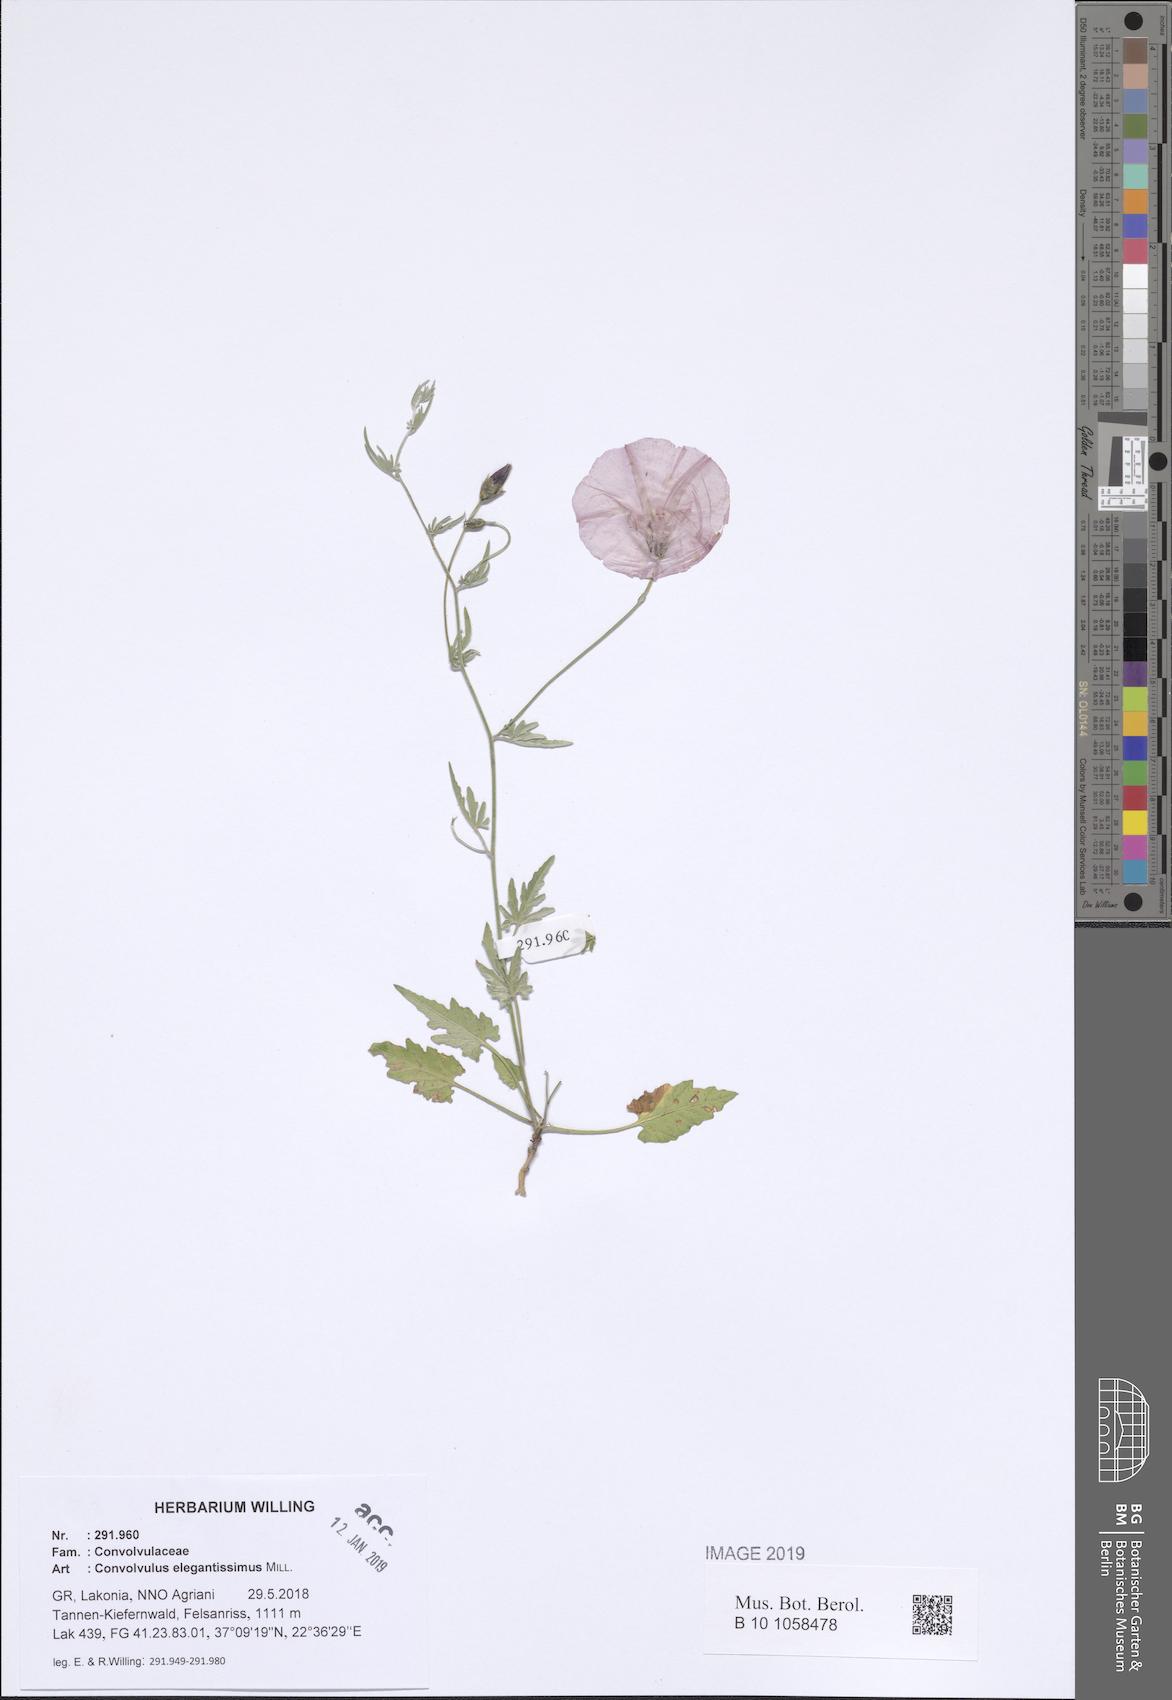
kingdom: Plantae
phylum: Tracheophyta
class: Magnoliopsida
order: Solanales
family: Convolvulaceae
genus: Convolvulus
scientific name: Convolvulus elegantissimus
